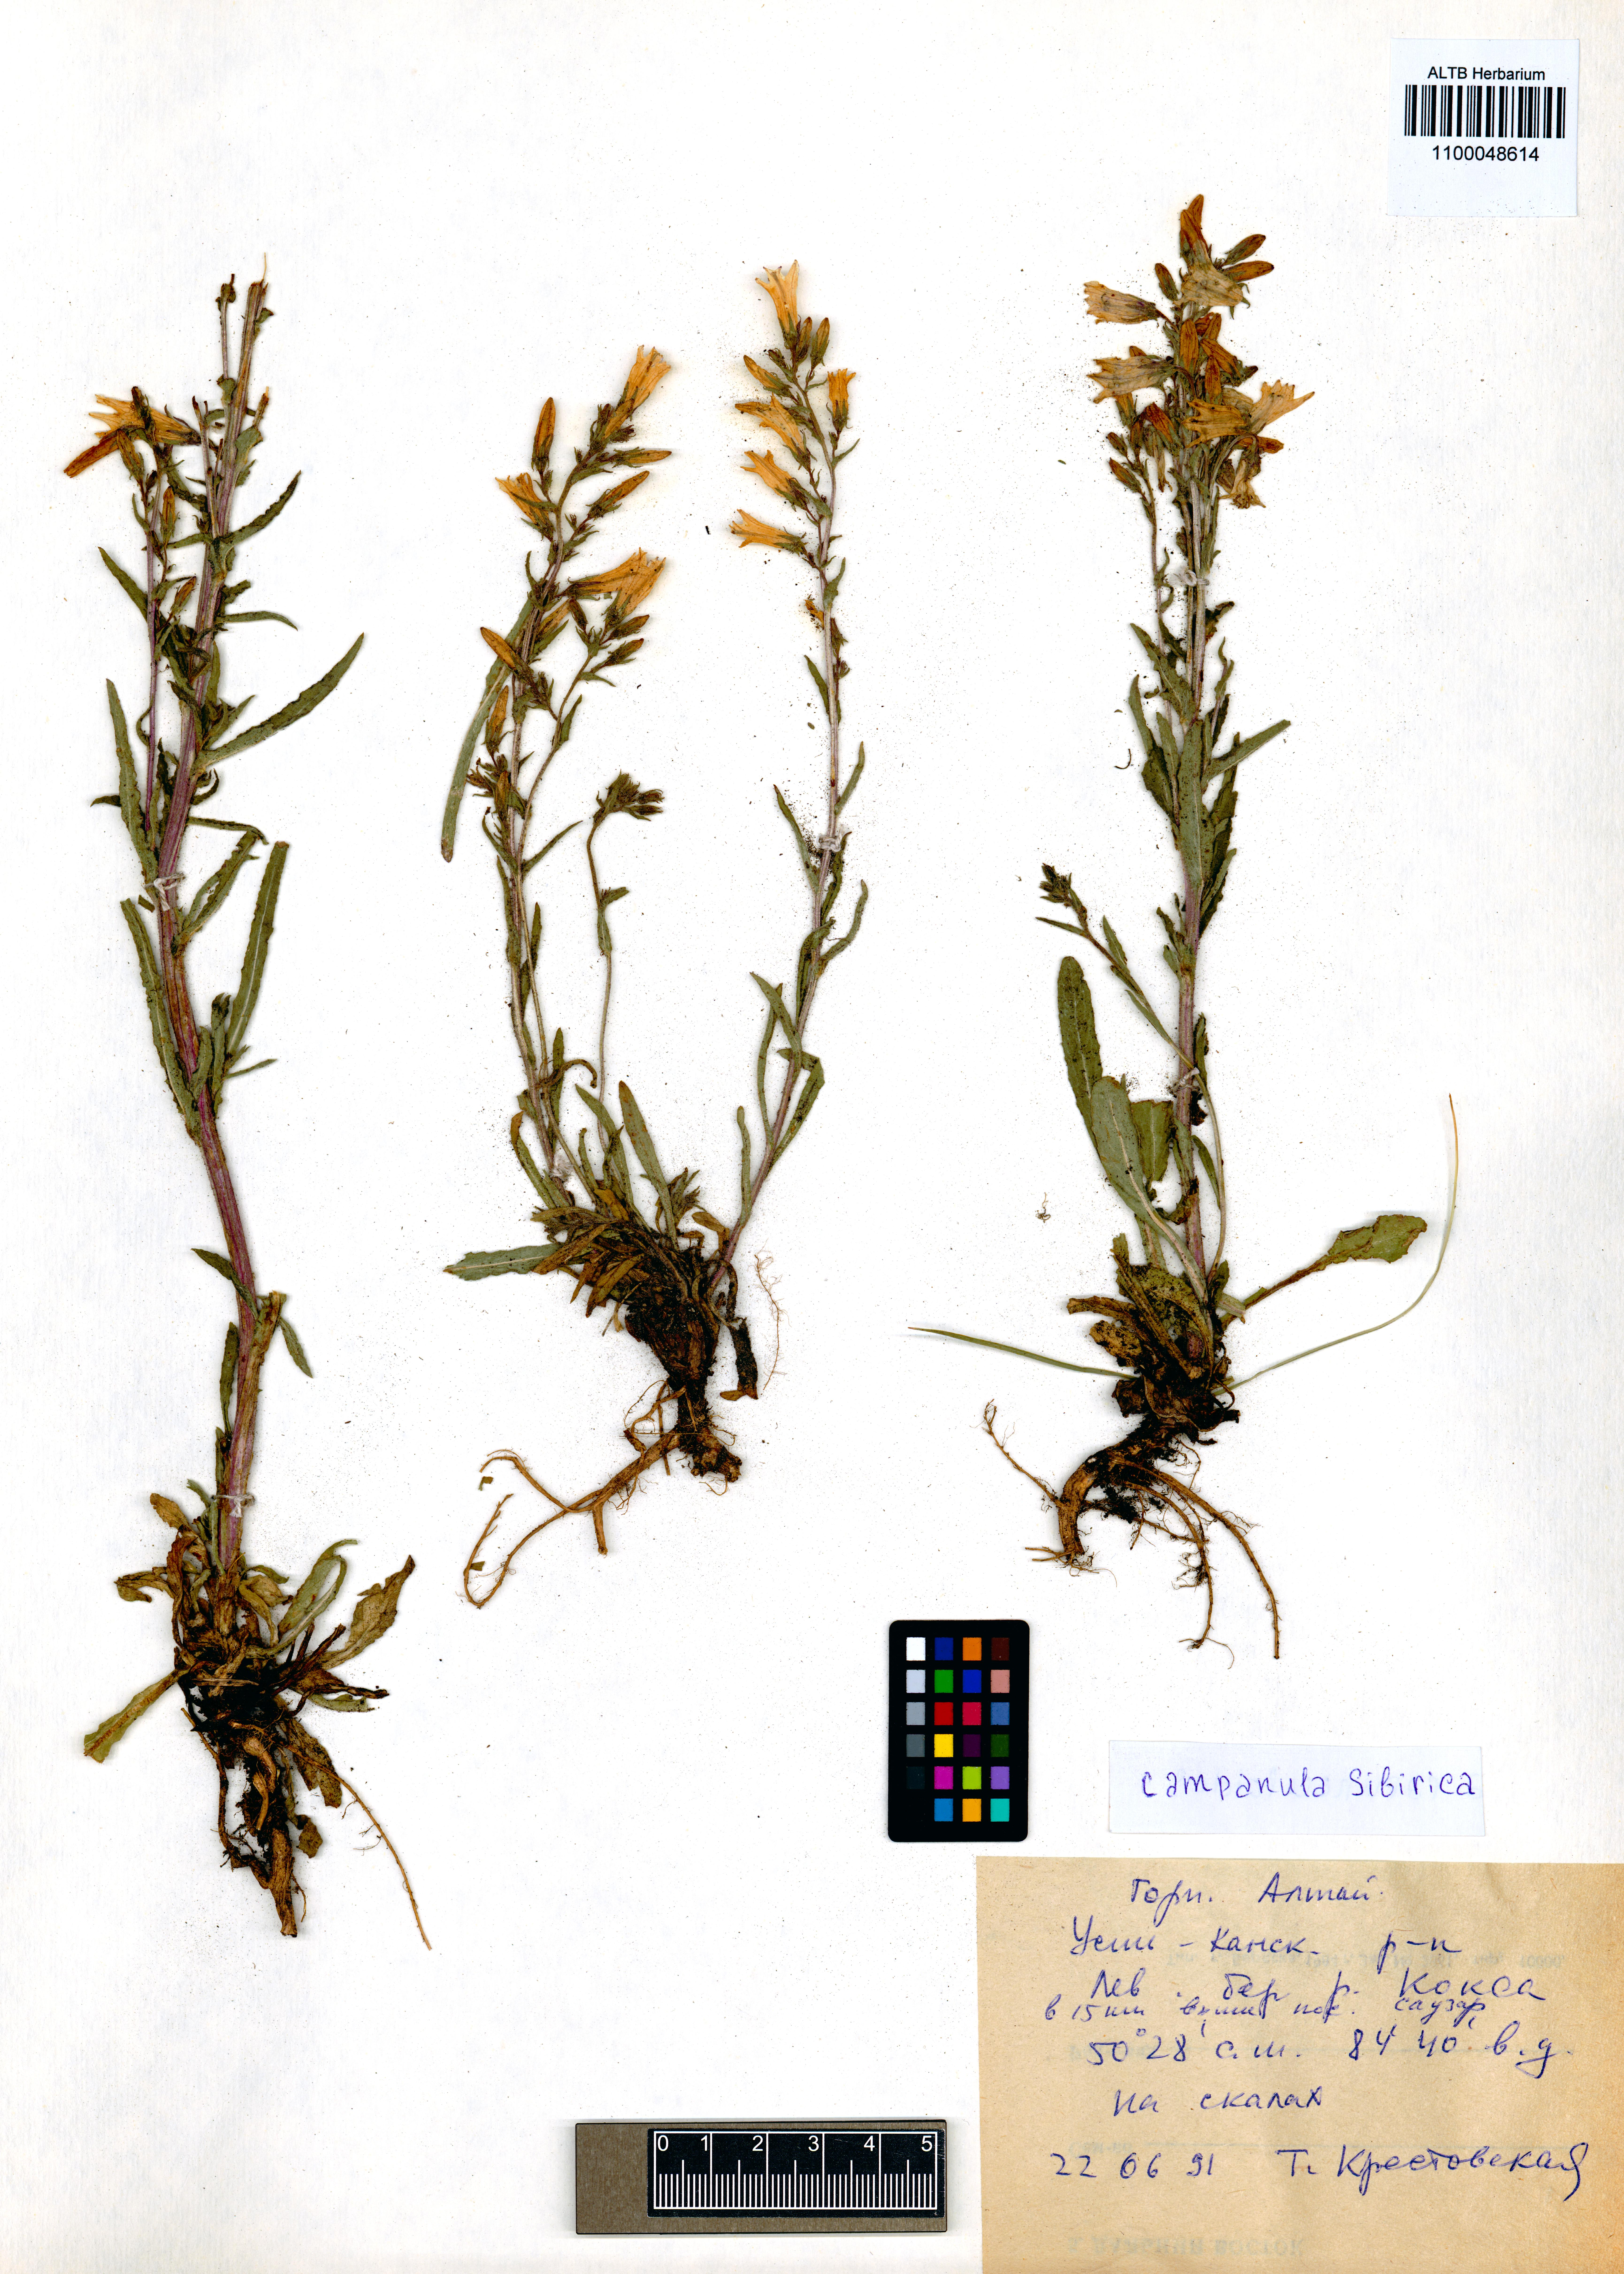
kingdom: Plantae
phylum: Tracheophyta
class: Magnoliopsida
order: Asterales
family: Campanulaceae
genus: Campanula
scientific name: Campanula sibirica
